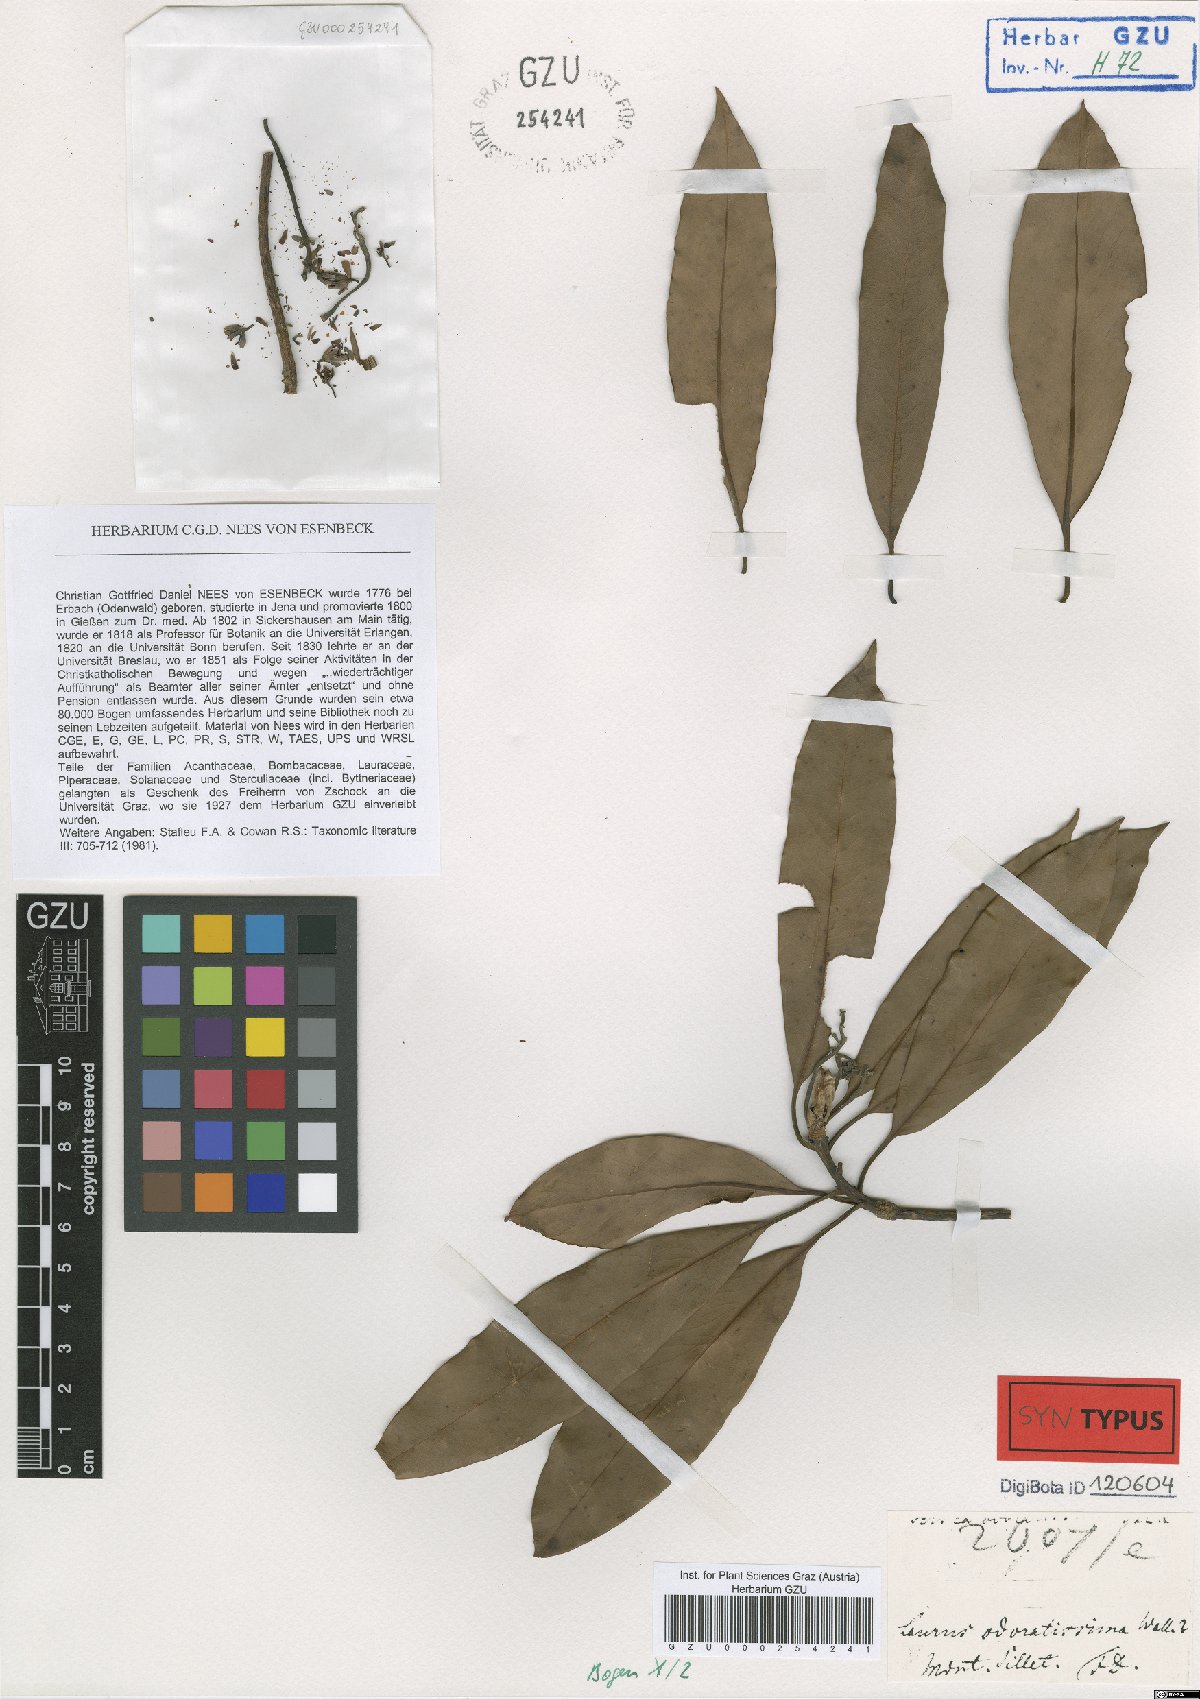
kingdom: Plantae
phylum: Tracheophyta
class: Magnoliopsida
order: Laurales
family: Lauraceae
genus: Machilus
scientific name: Machilus odoratissimus
